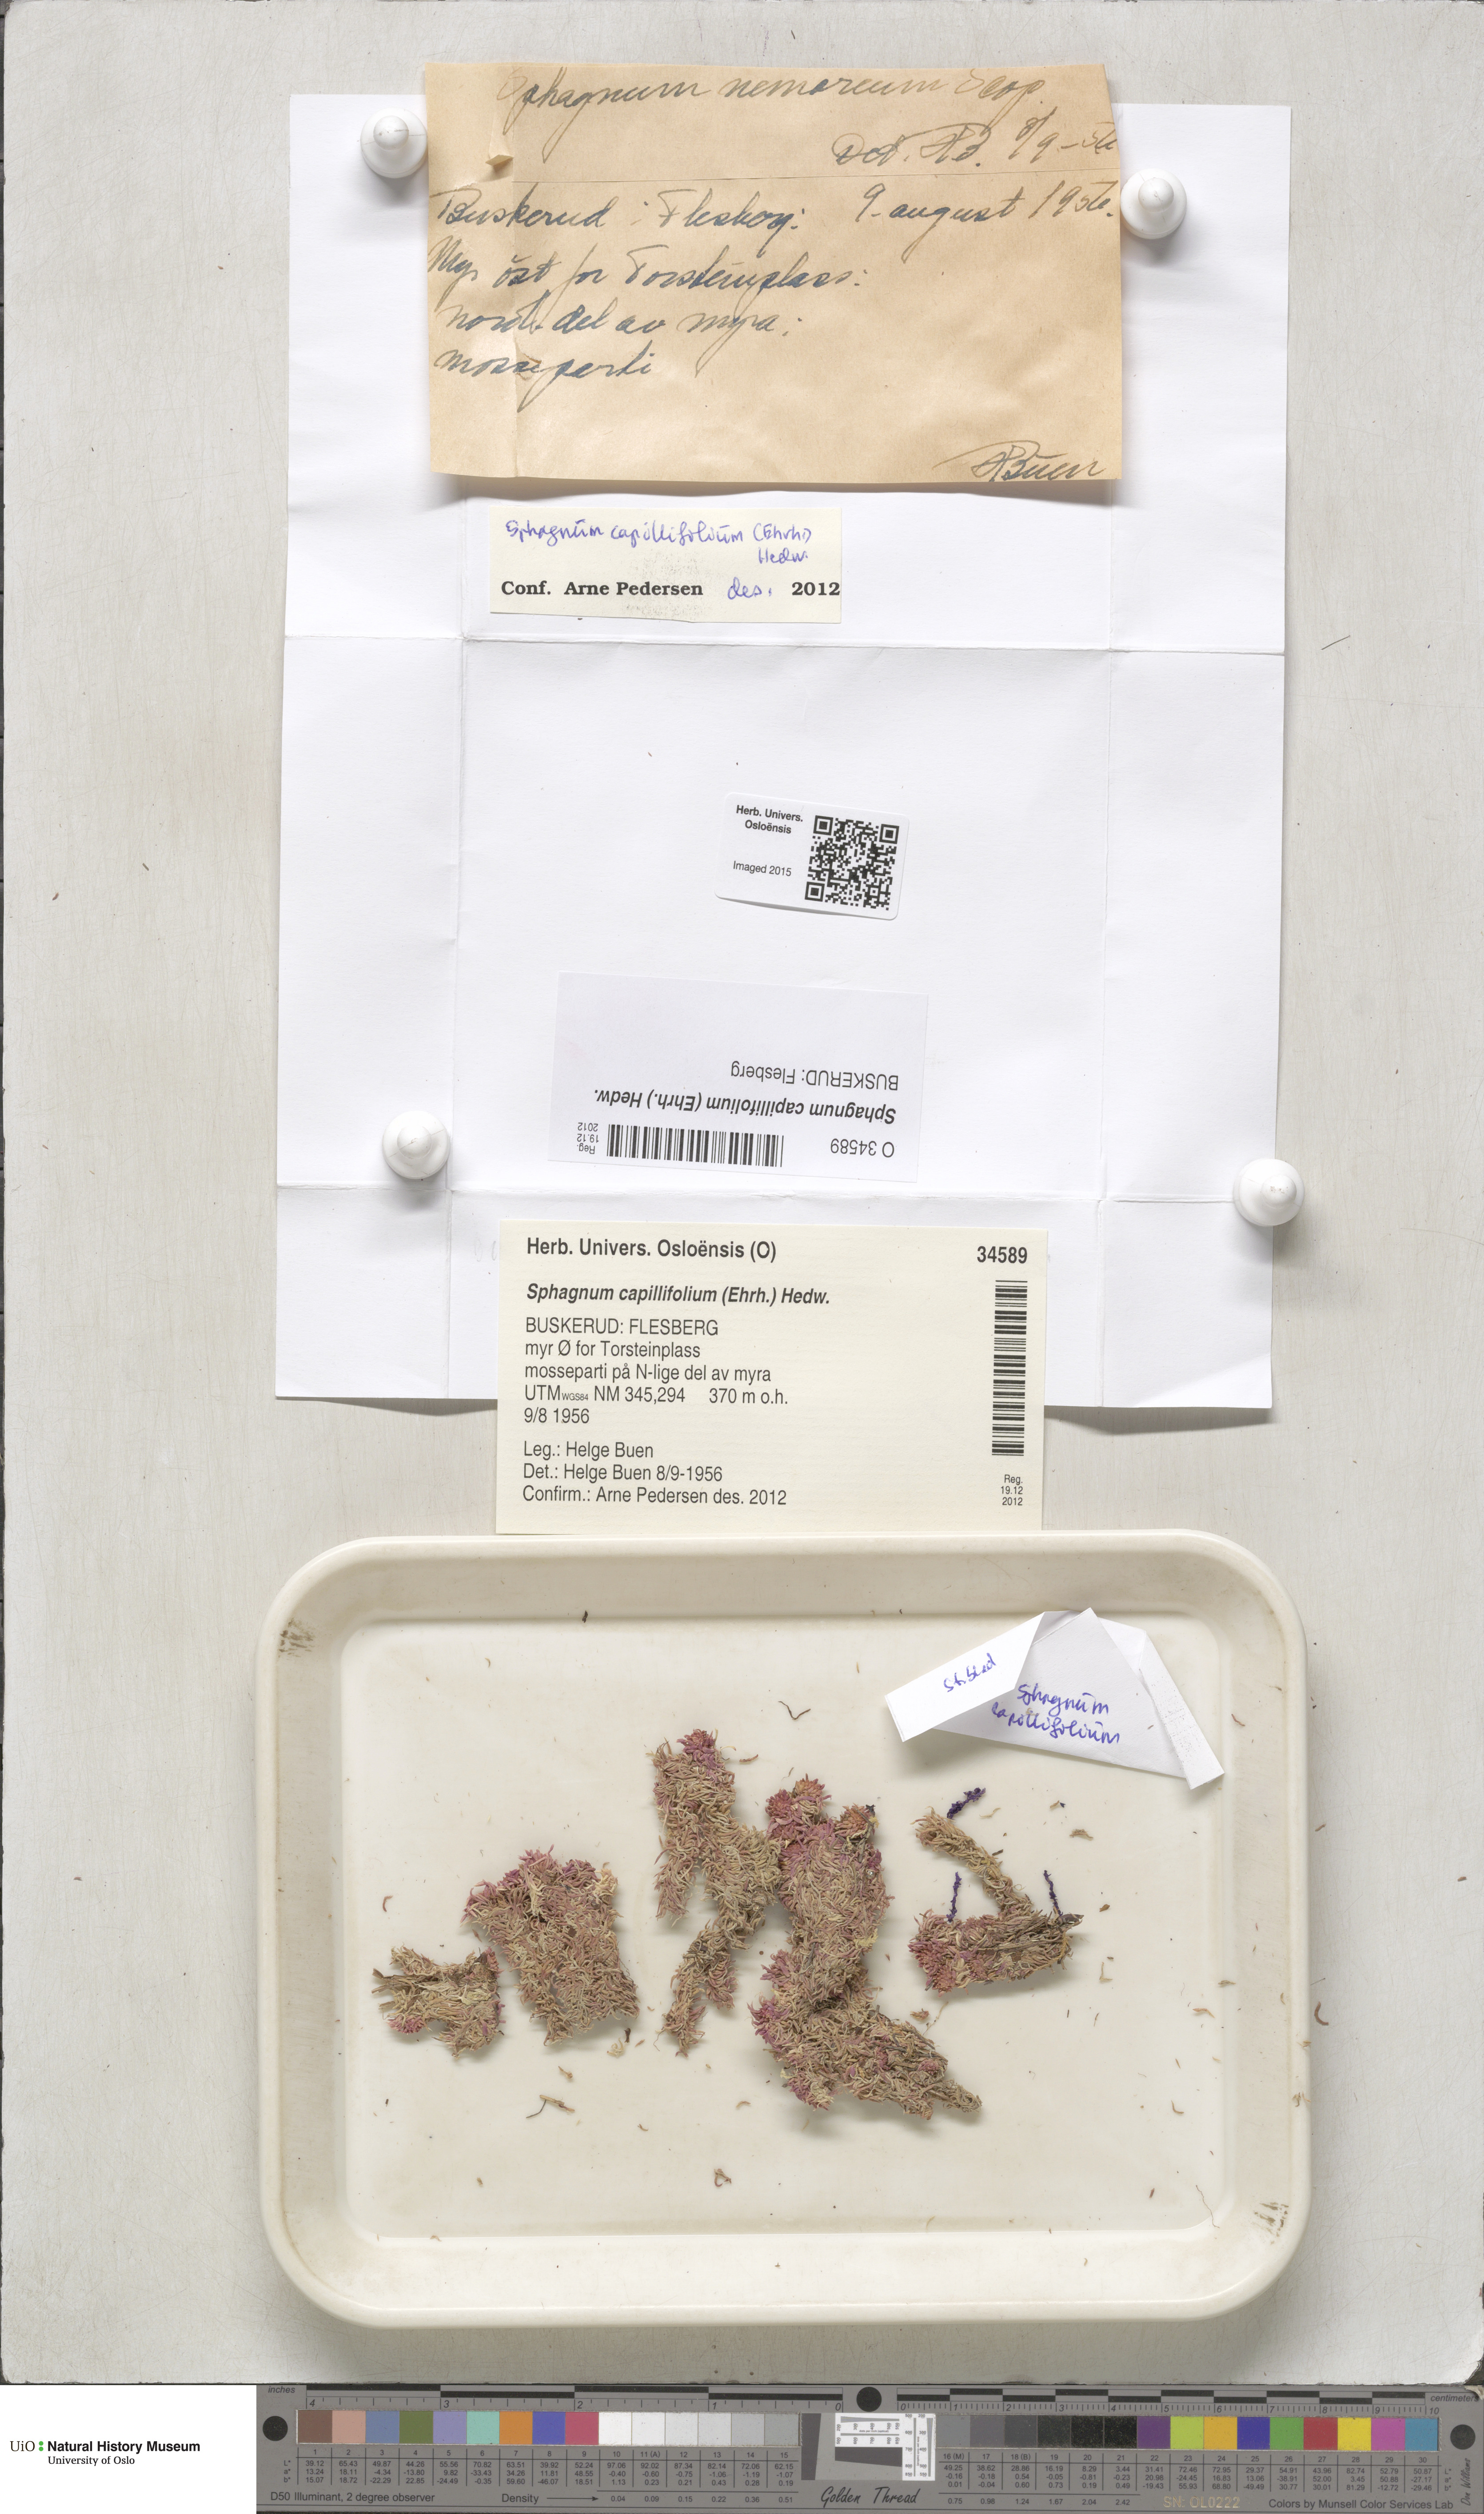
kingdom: Plantae
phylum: Bryophyta
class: Sphagnopsida
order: Sphagnales
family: Sphagnaceae
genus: Sphagnum
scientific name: Sphagnum capillifolium
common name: Small red peat moss
